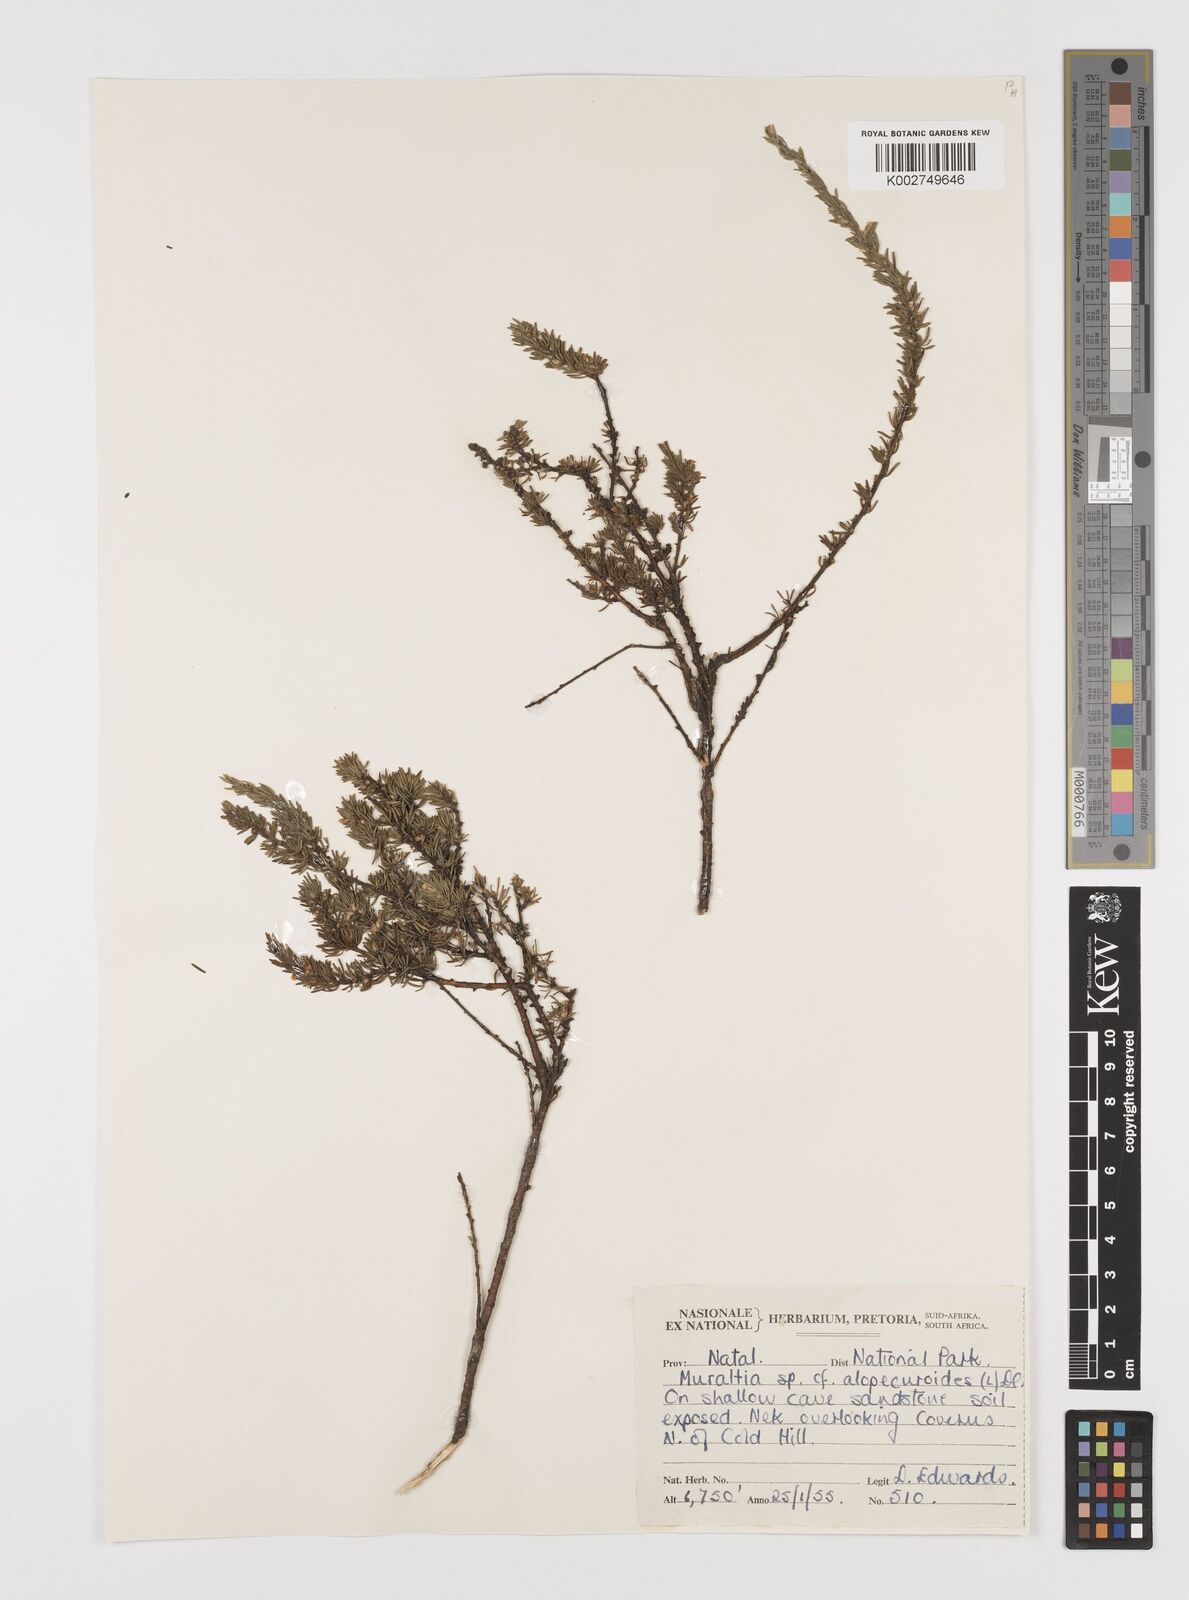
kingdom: Plantae
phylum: Tracheophyta
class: Magnoliopsida
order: Fabales
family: Polygalaceae
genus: Muraltia
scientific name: Muraltia alopecuroides
